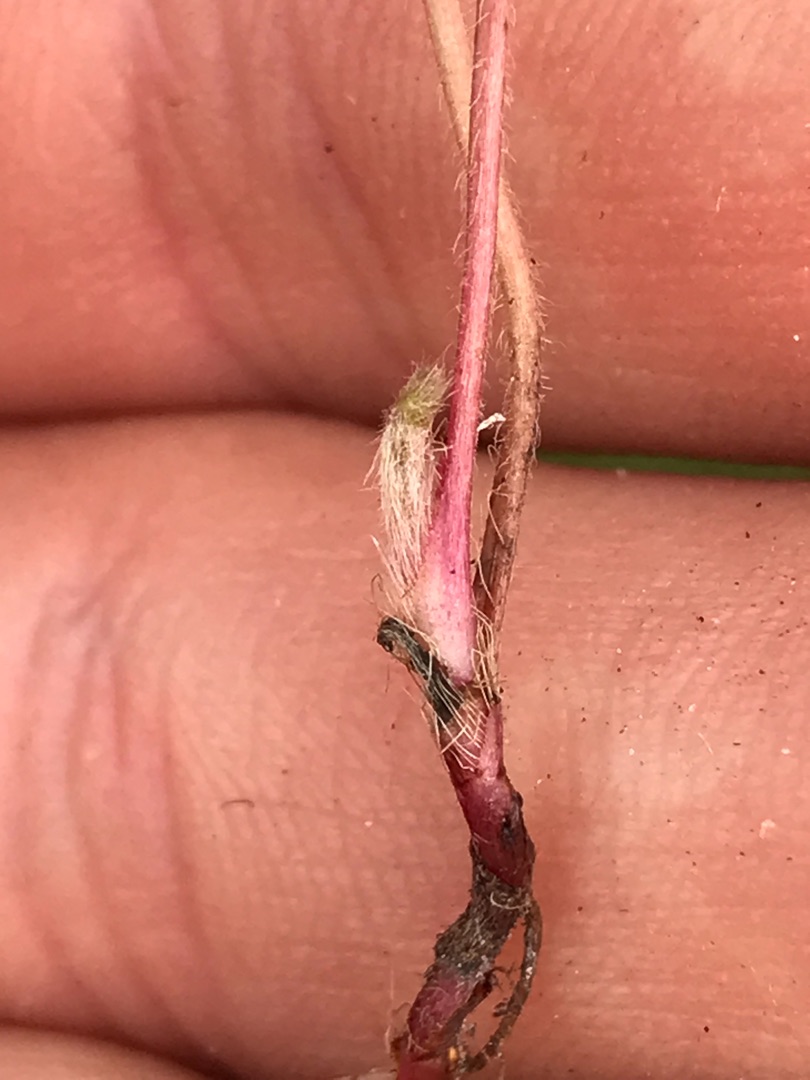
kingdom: Plantae
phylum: Tracheophyta
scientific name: Tracheophyta
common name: Karplanter
